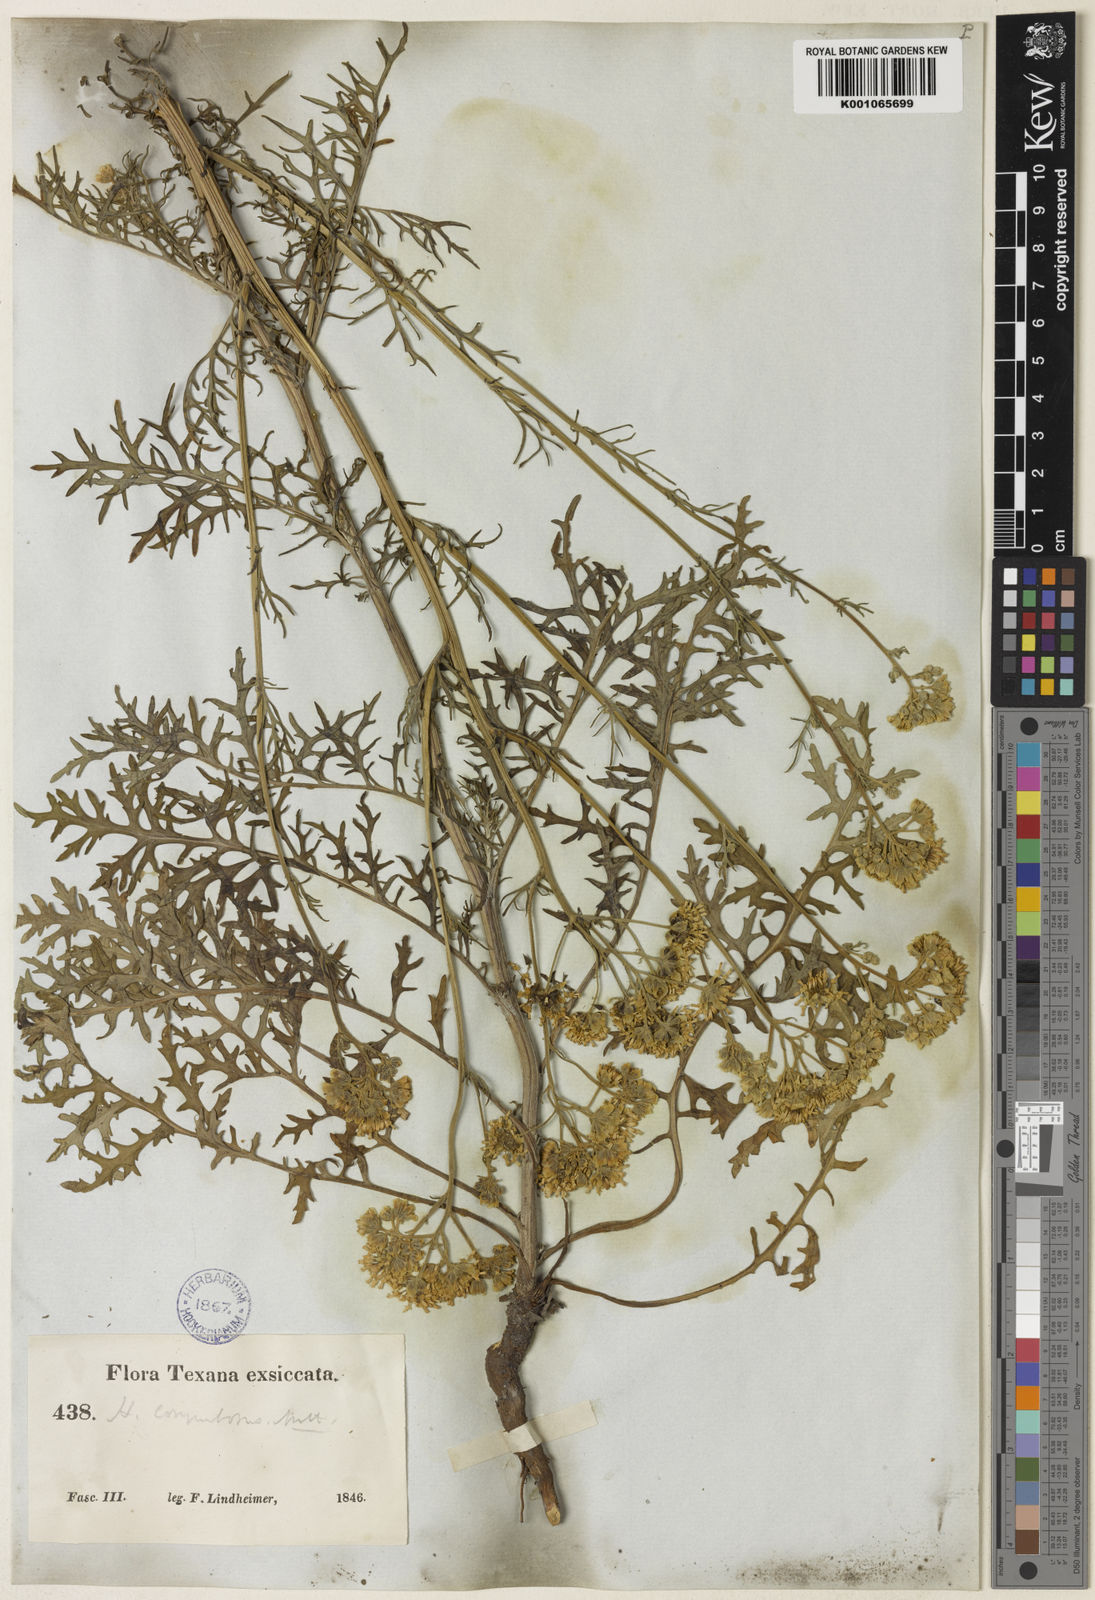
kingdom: Plantae
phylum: Tracheophyta
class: Magnoliopsida
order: Asterales
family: Asteraceae
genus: Hymenopappus
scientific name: Hymenopappus scabiosaeus
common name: Carolina woollywhite
